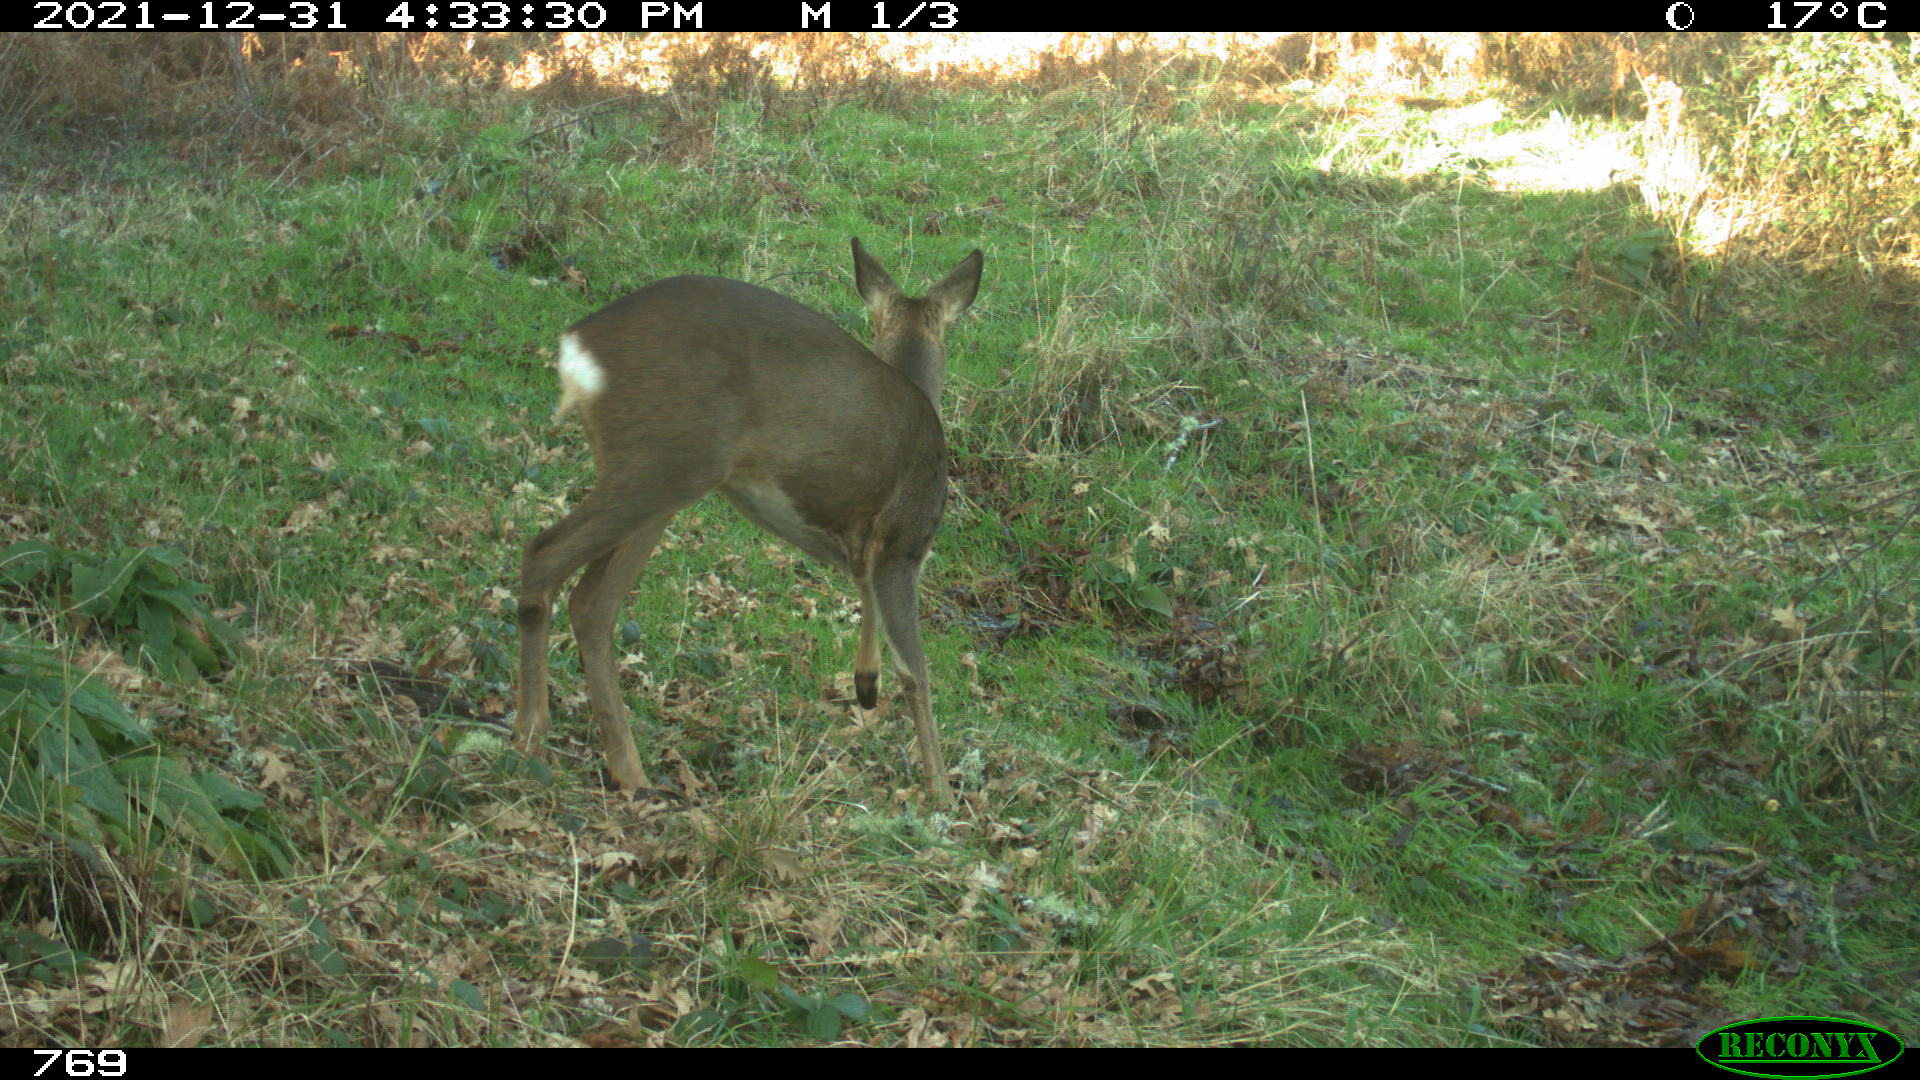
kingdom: Animalia
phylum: Chordata
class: Mammalia
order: Artiodactyla
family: Cervidae
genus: Capreolus
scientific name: Capreolus capreolus
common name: Western roe deer
